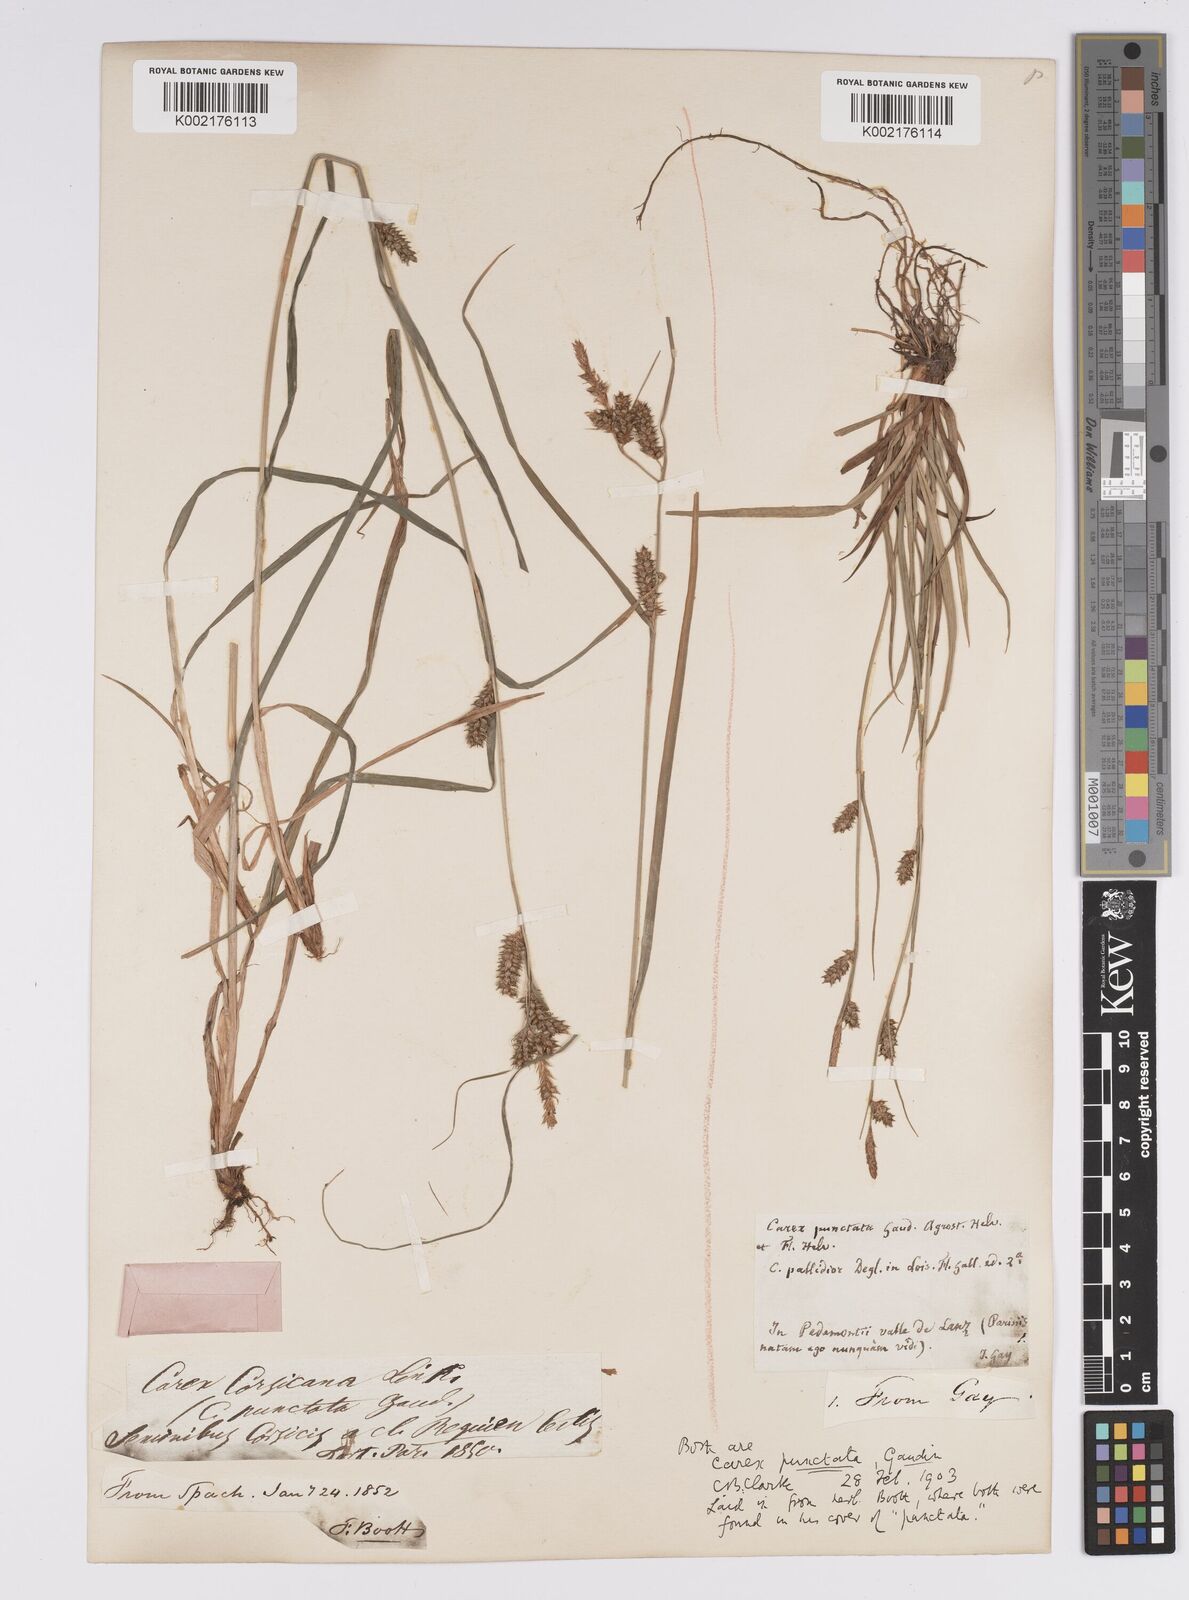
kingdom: Plantae
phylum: Tracheophyta
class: Liliopsida
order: Poales
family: Cyperaceae
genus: Carex
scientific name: Carex punctata
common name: Dotted sedge
